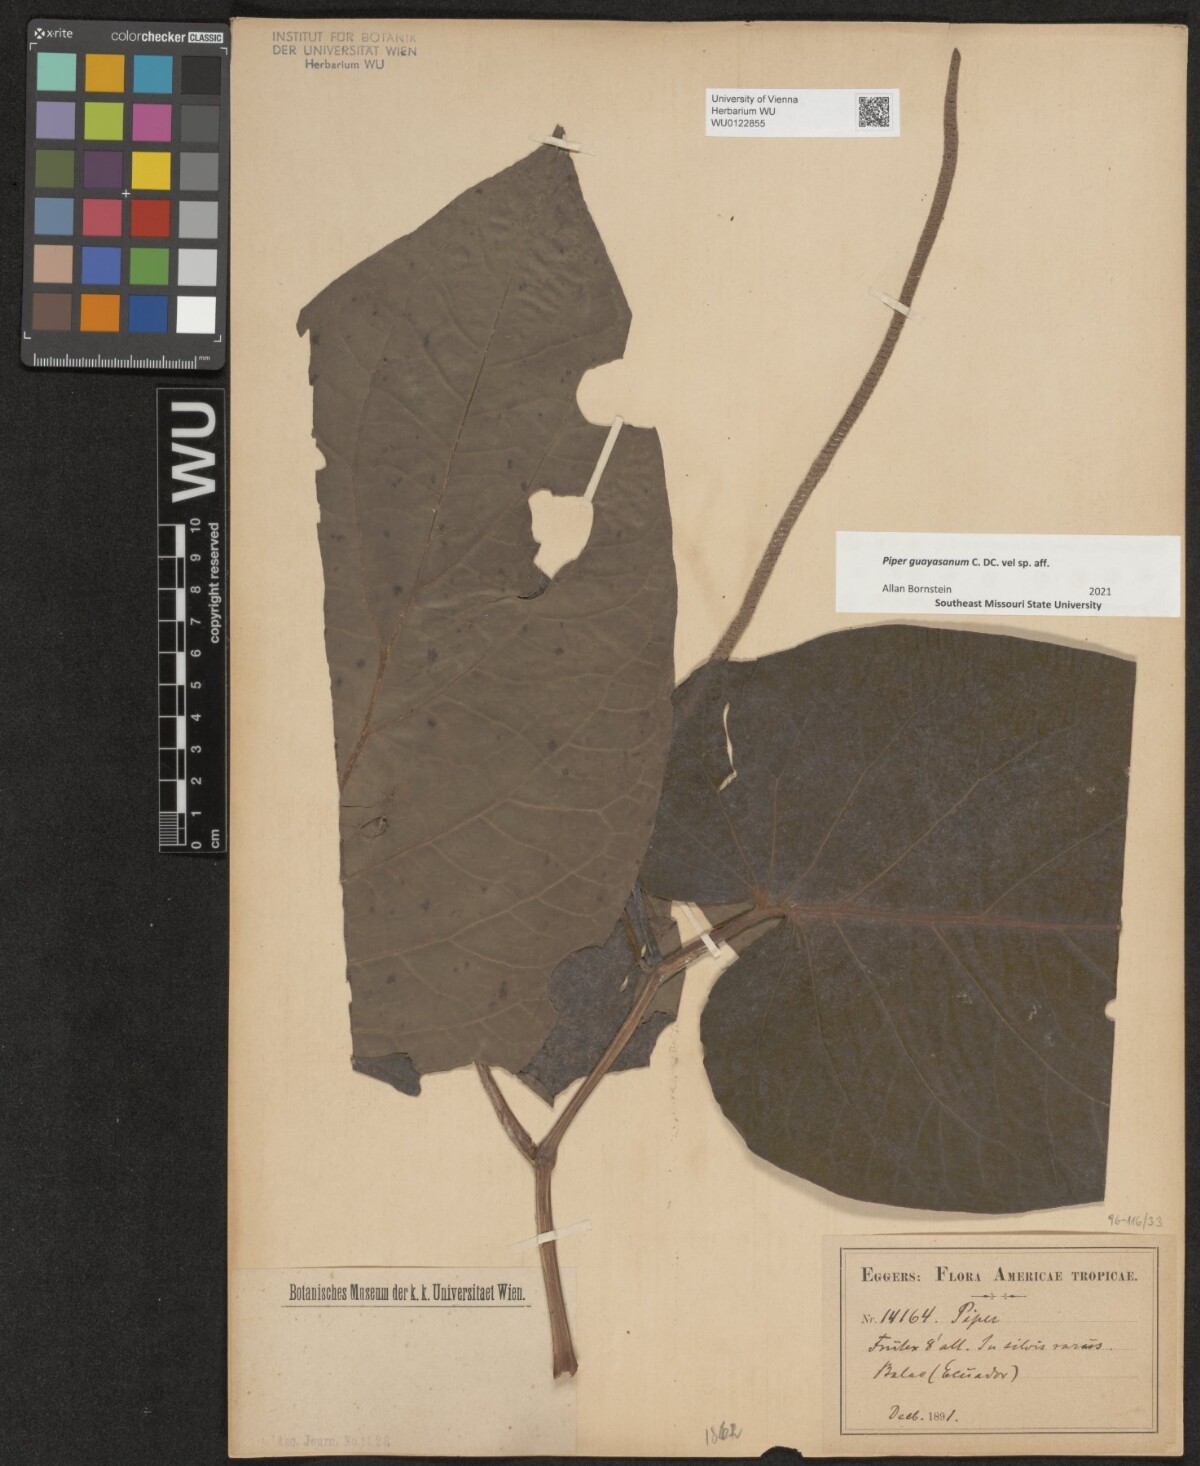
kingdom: Plantae
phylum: Tracheophyta
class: Magnoliopsida
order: Piperales
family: Piperaceae
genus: Piper
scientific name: Piper imperiale
